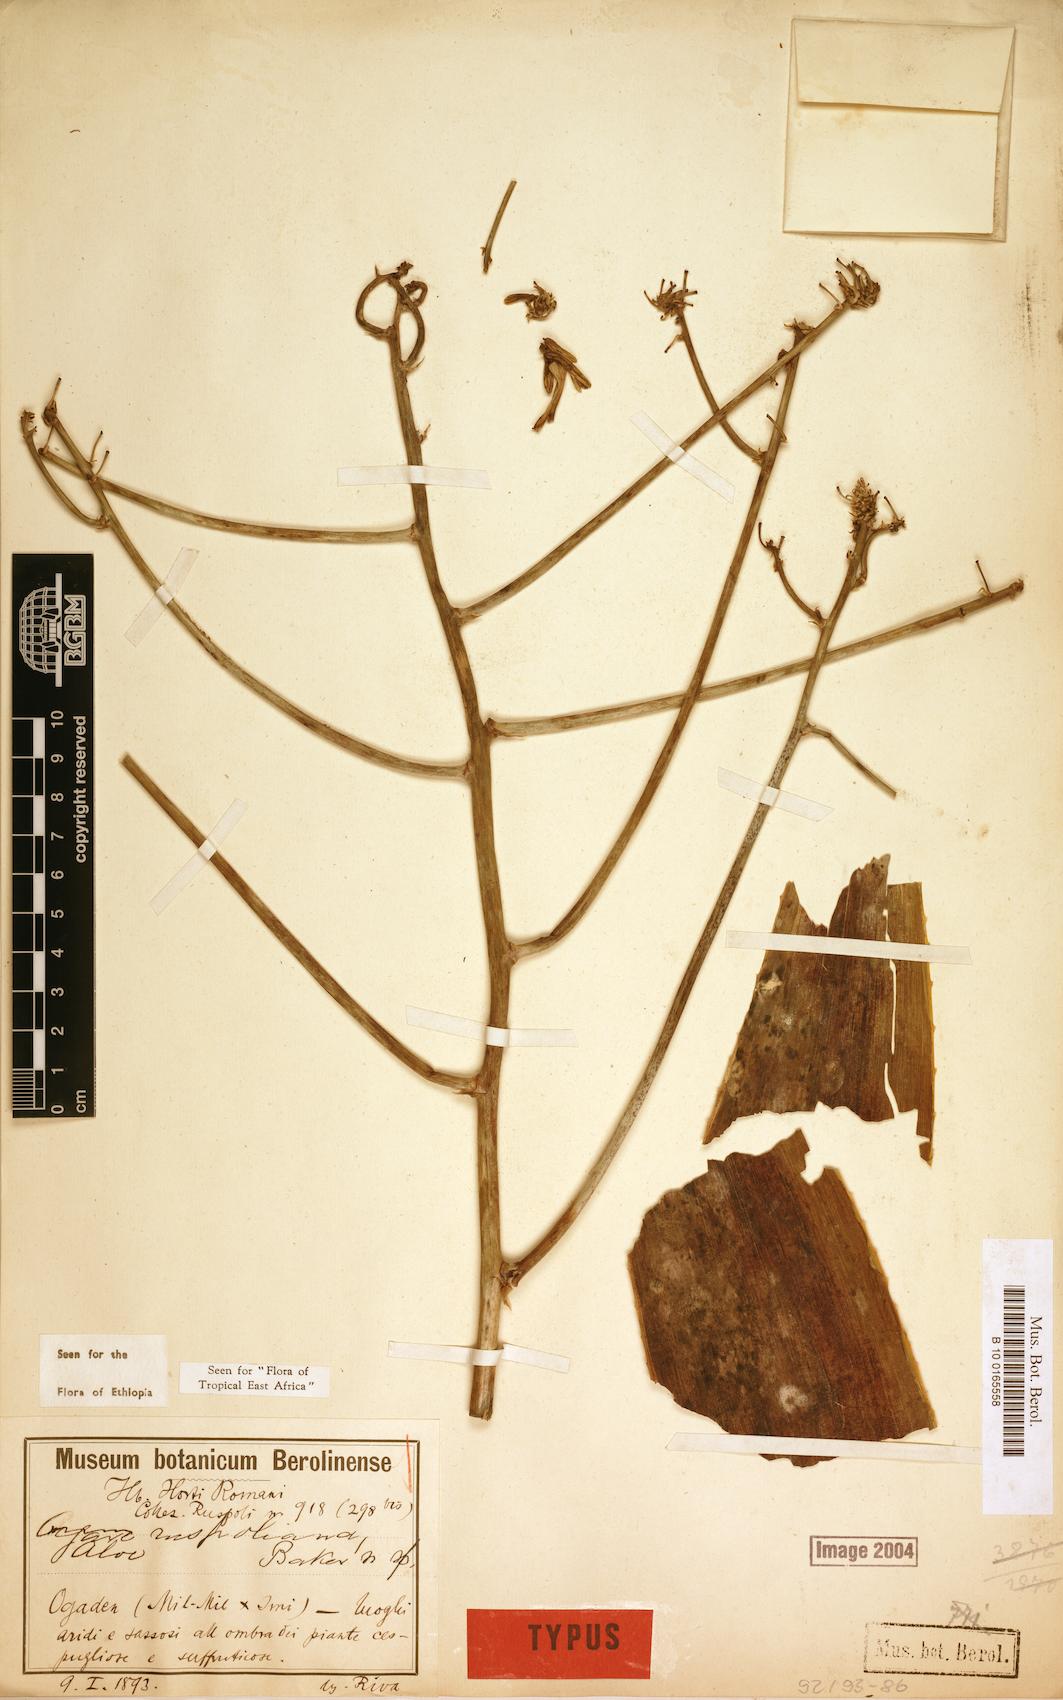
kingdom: Plantae
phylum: Tracheophyta
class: Liliopsida
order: Asparagales
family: Asphodelaceae
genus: Aloe
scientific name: Aloe ruspoliana
